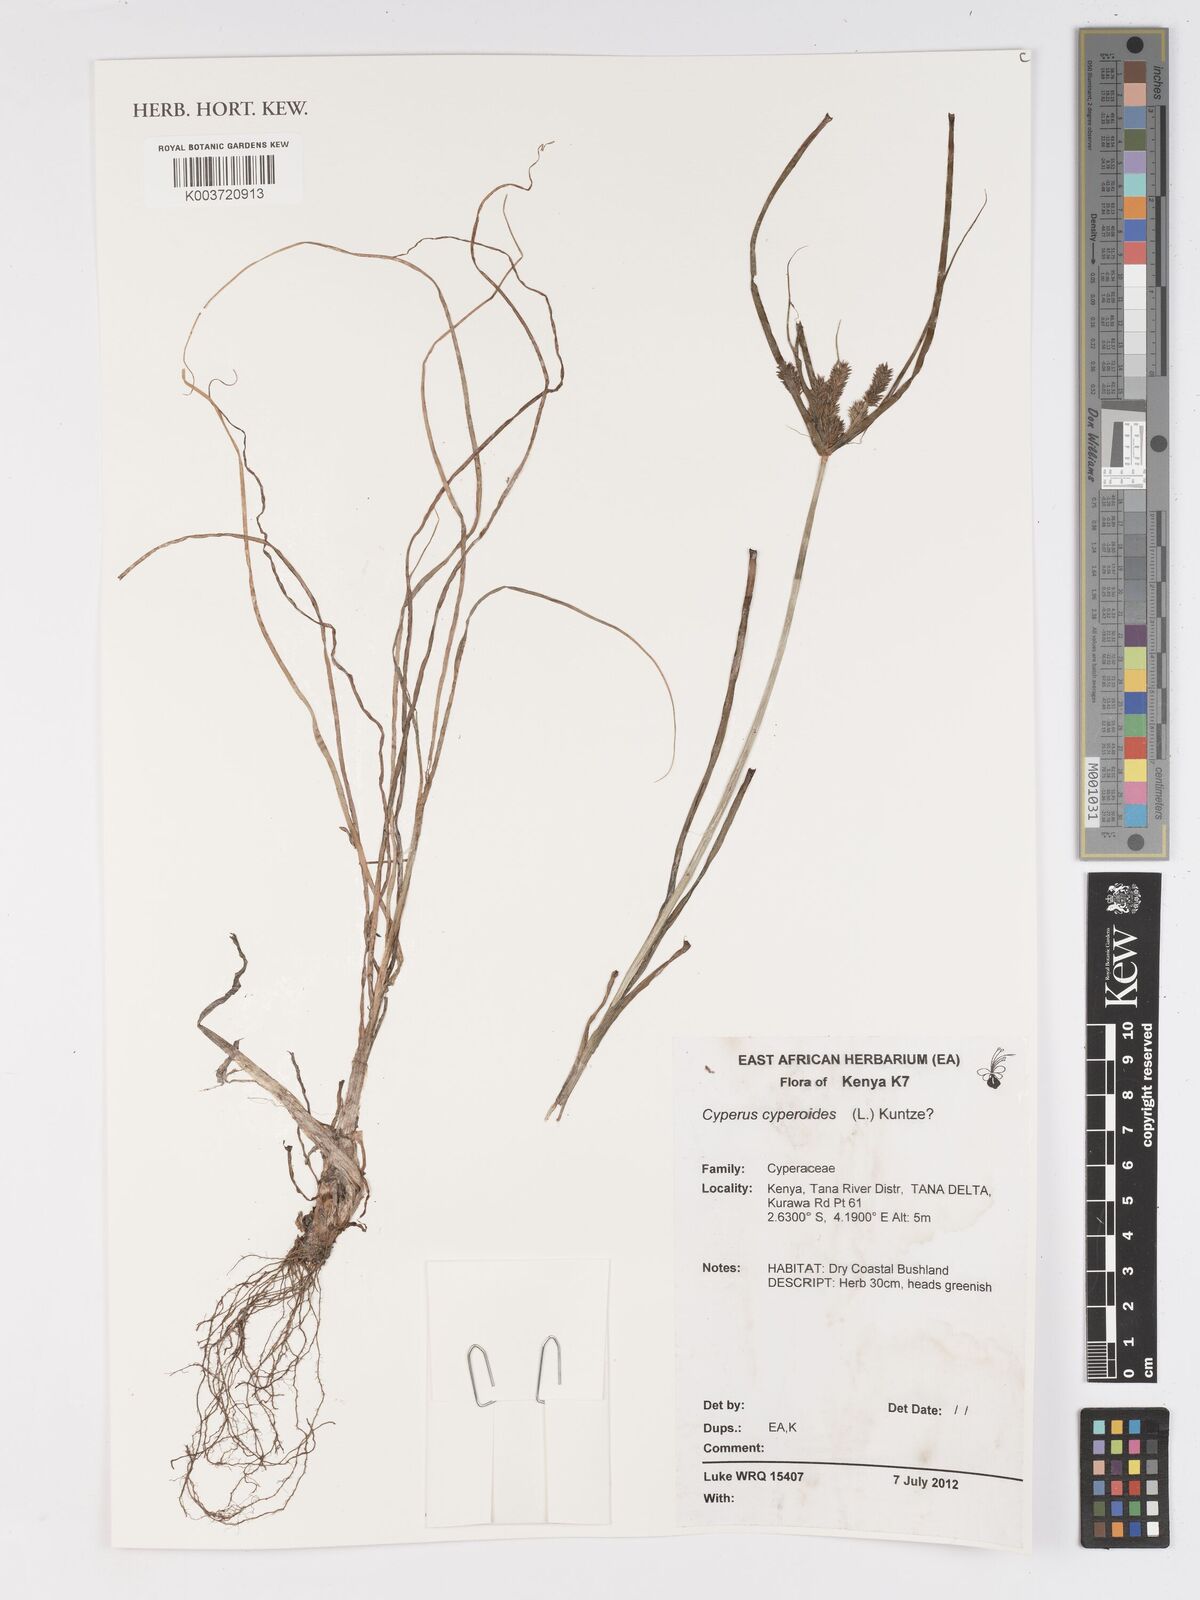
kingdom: Plantae
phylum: Tracheophyta
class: Liliopsida
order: Poales
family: Cyperaceae
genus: Cyperus
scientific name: Cyperus cyperoides
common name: Pacific island flat sedge
